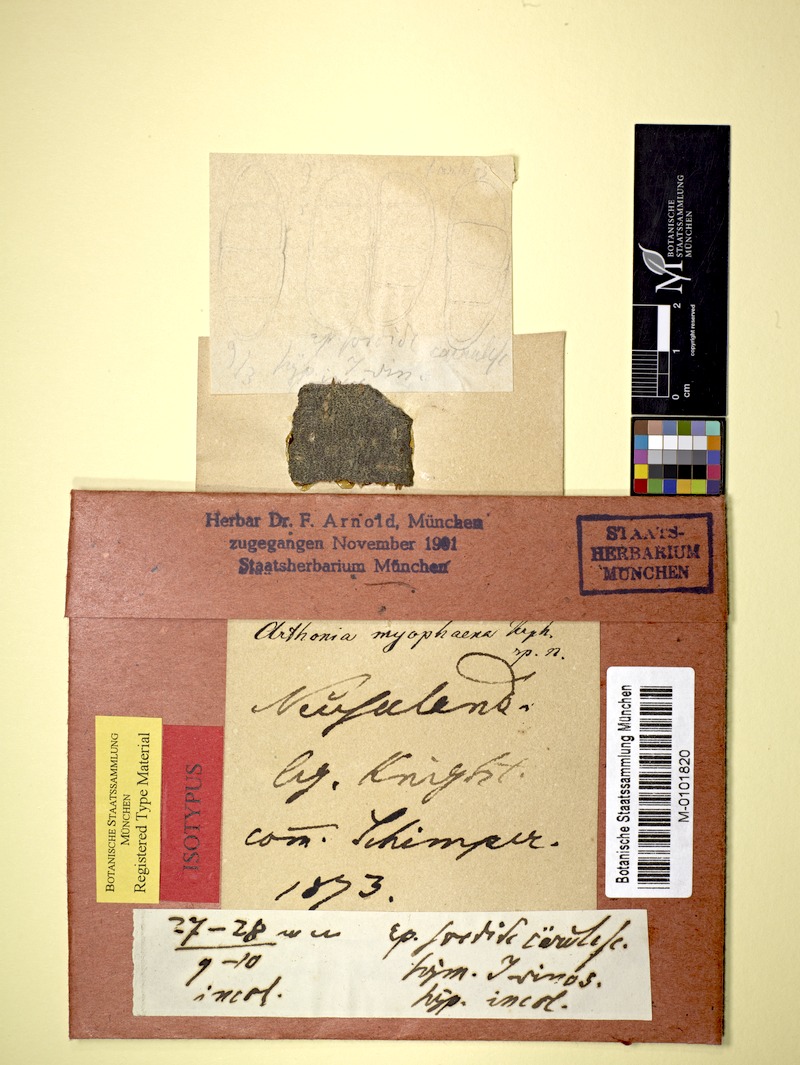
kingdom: Fungi
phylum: Ascomycota
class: Arthoniomycetes
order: Arthoniales
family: Arthoniaceae
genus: Arthonia
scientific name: Arthonia
